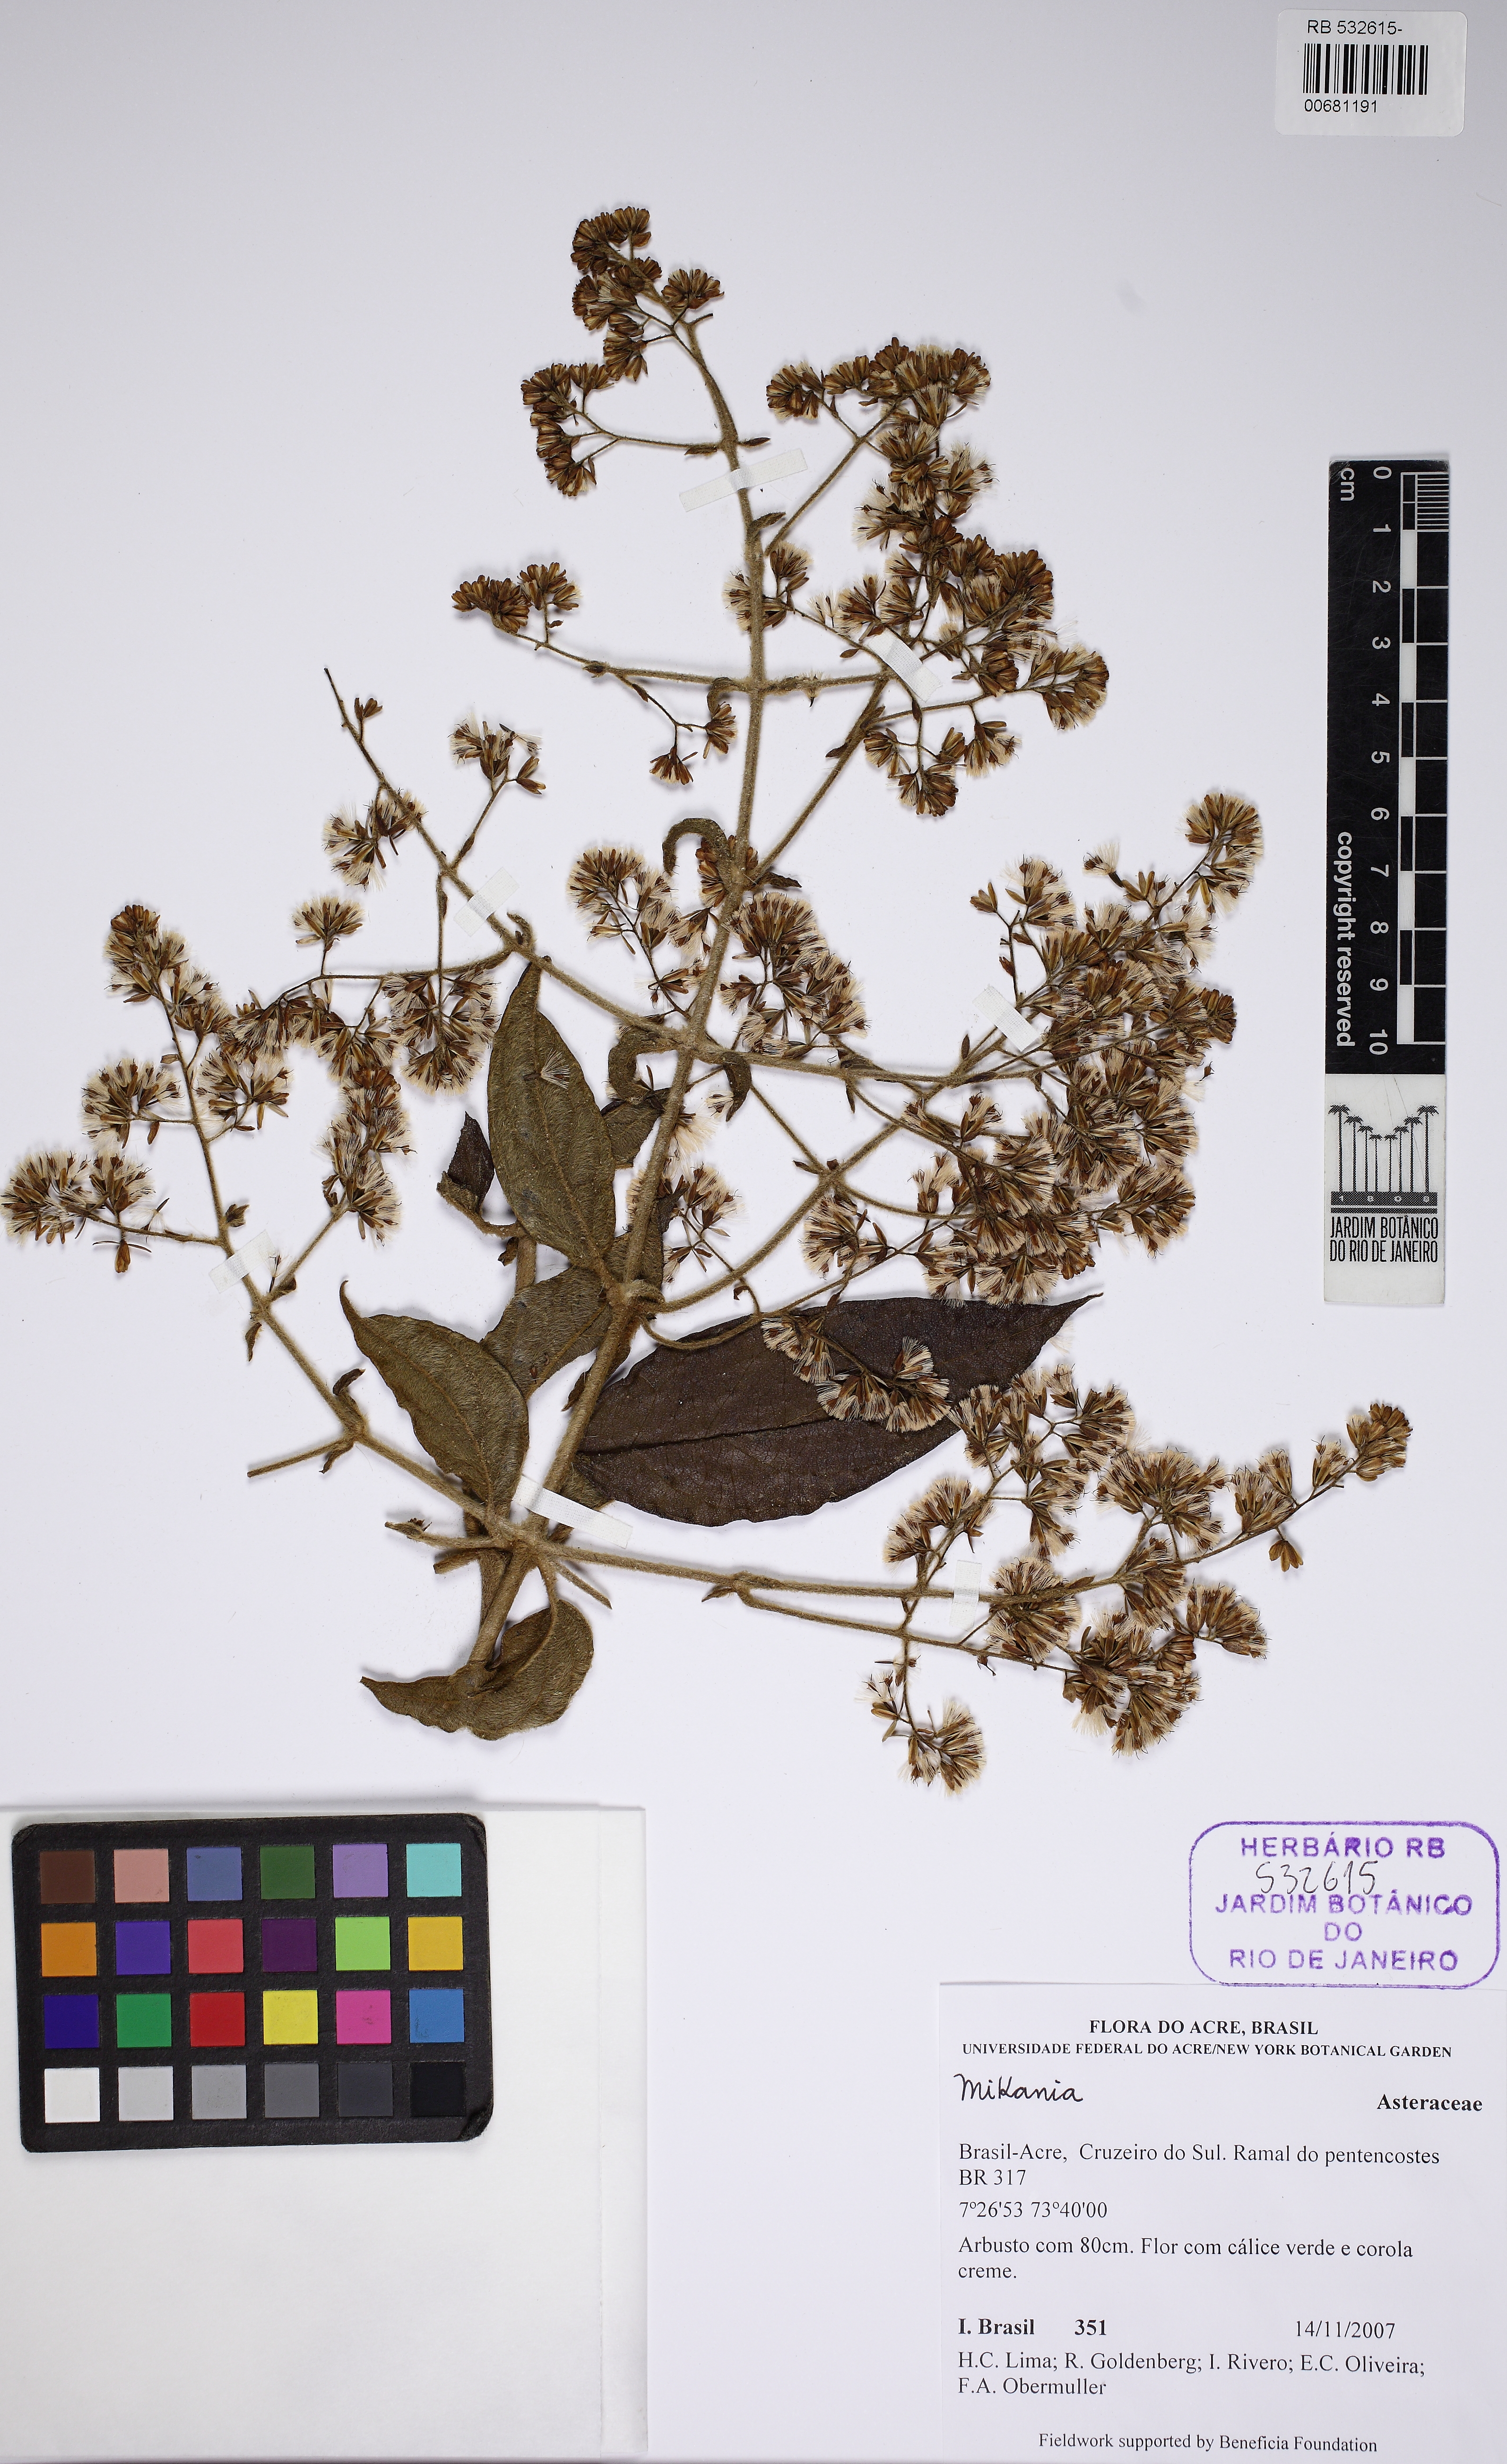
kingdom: Plantae
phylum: Tracheophyta
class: Magnoliopsida
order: Asterales
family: Asteraceae
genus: Mikania
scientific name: Mikania
